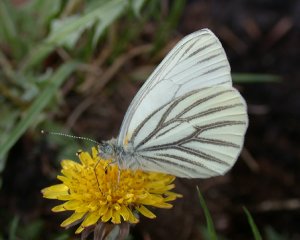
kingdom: Animalia
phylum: Arthropoda
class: Insecta
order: Lepidoptera
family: Pieridae
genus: Pieris
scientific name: Pieris oleracea
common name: Mustard White
